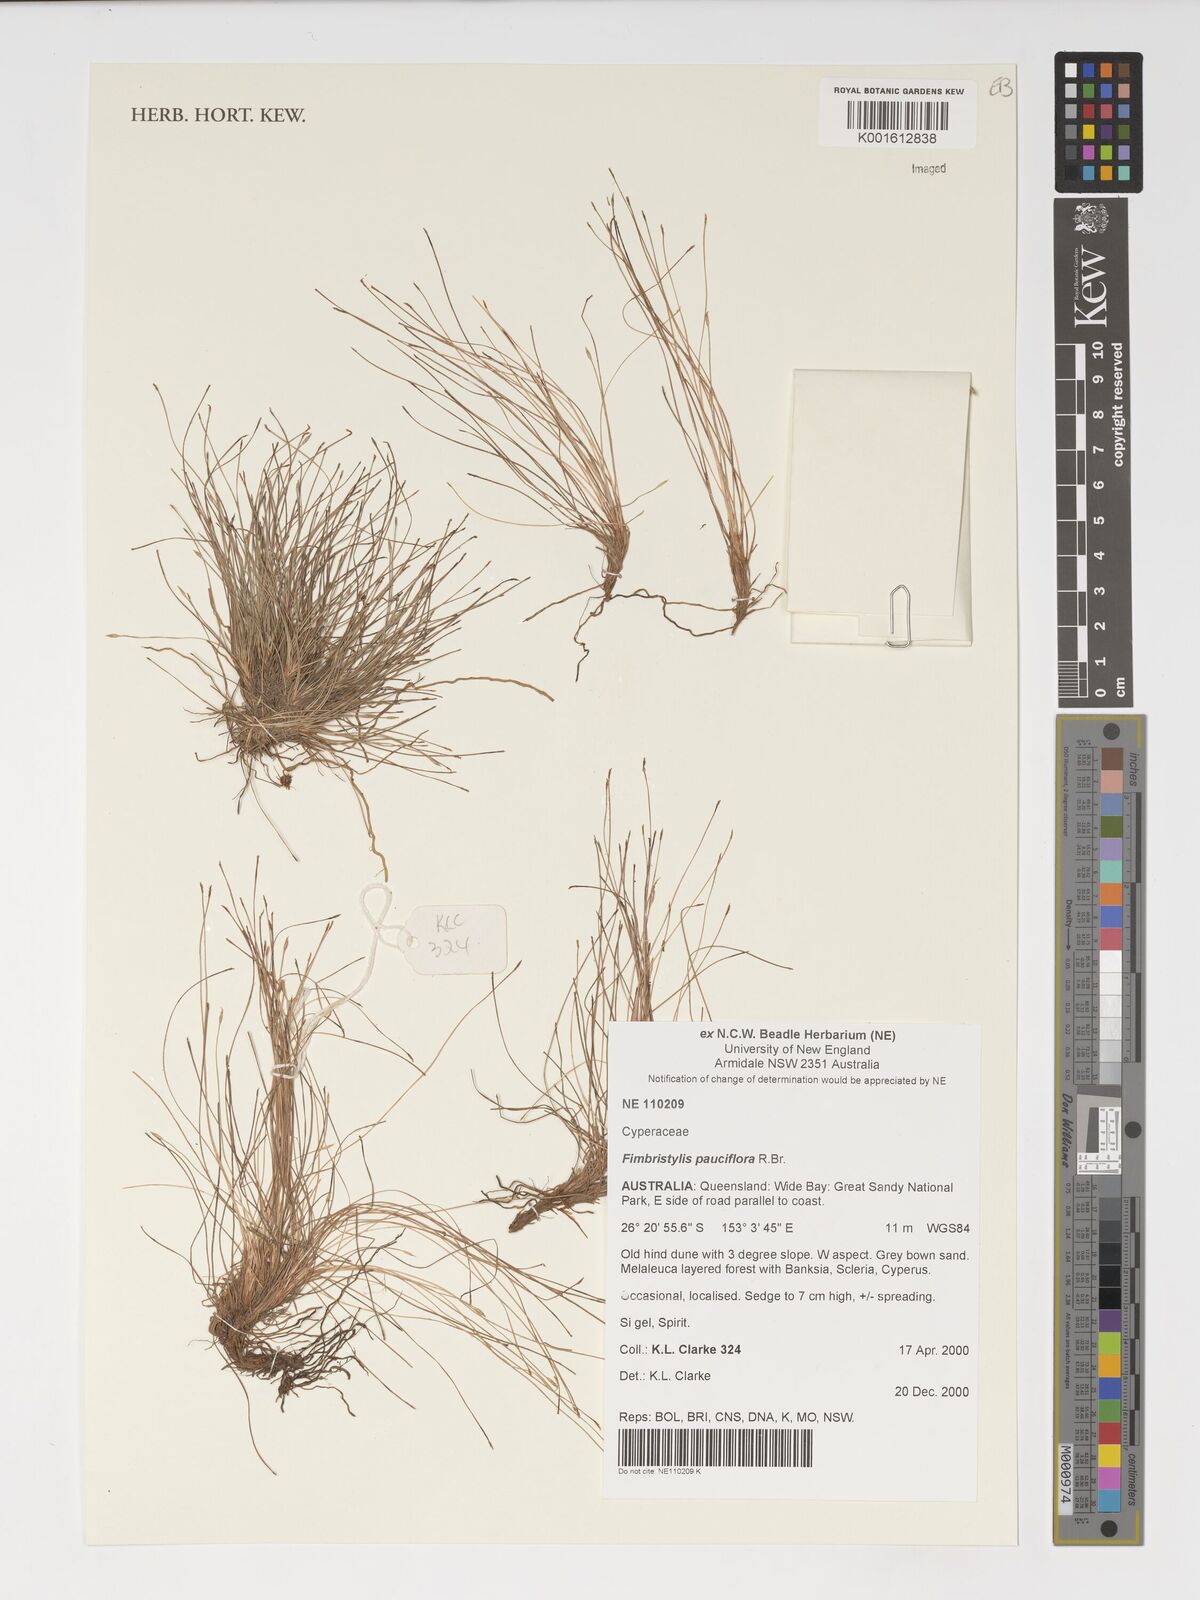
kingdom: Plantae
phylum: Tracheophyta
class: Liliopsida
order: Poales
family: Cyperaceae
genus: Fimbristylis
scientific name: Fimbristylis pauciflora
